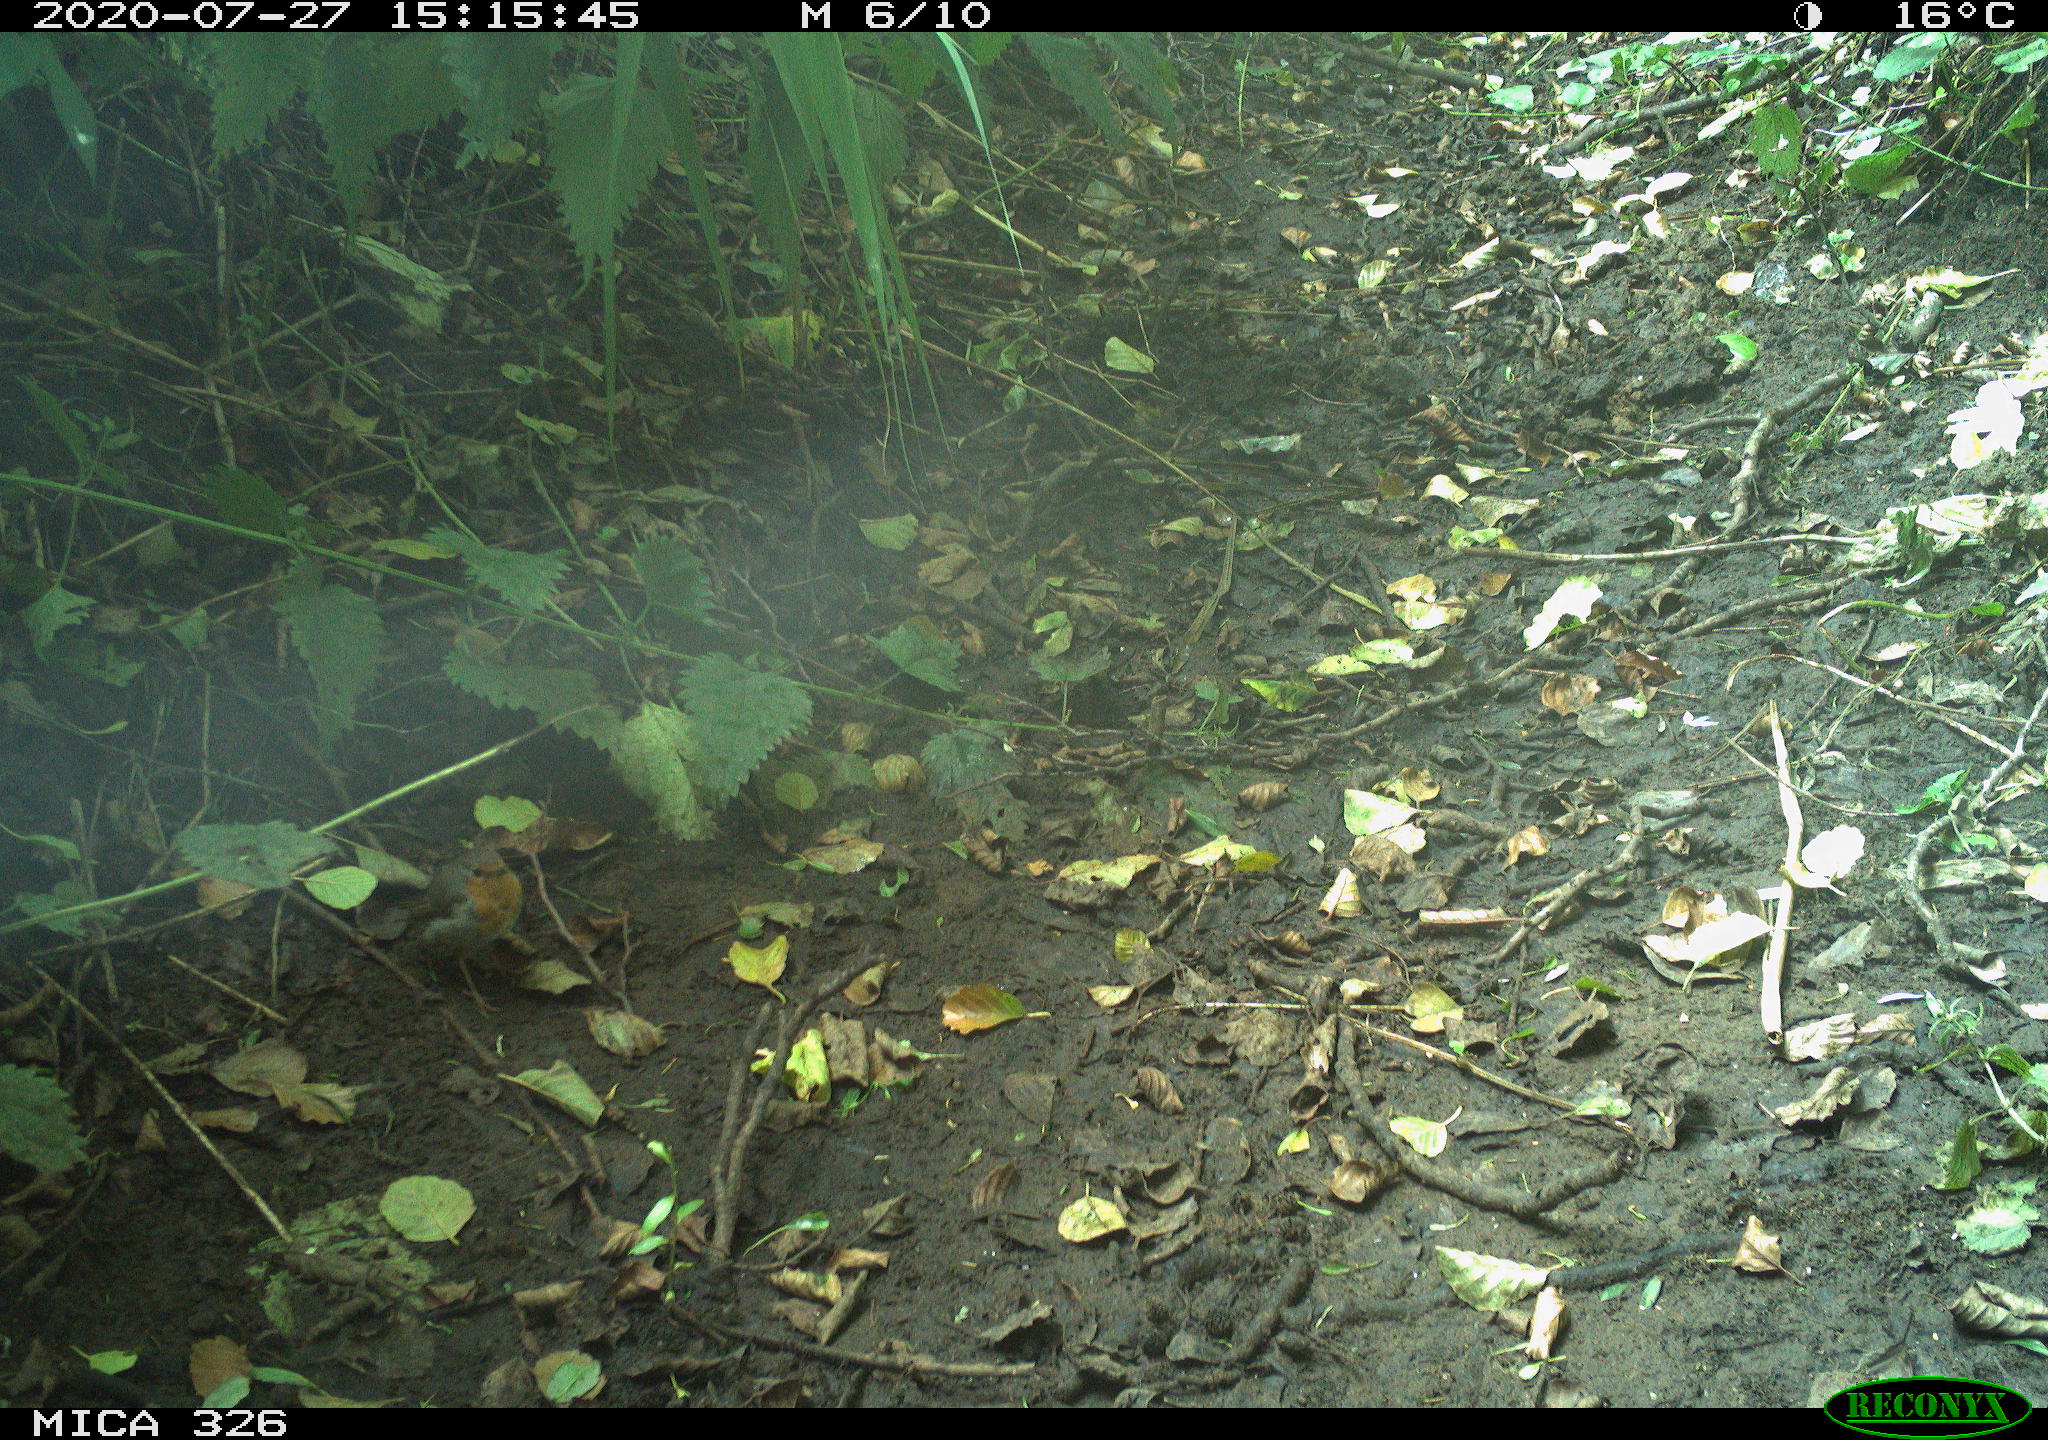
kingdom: Animalia
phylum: Chordata
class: Aves
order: Passeriformes
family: Muscicapidae
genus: Erithacus
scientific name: Erithacus rubecula
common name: European robin
